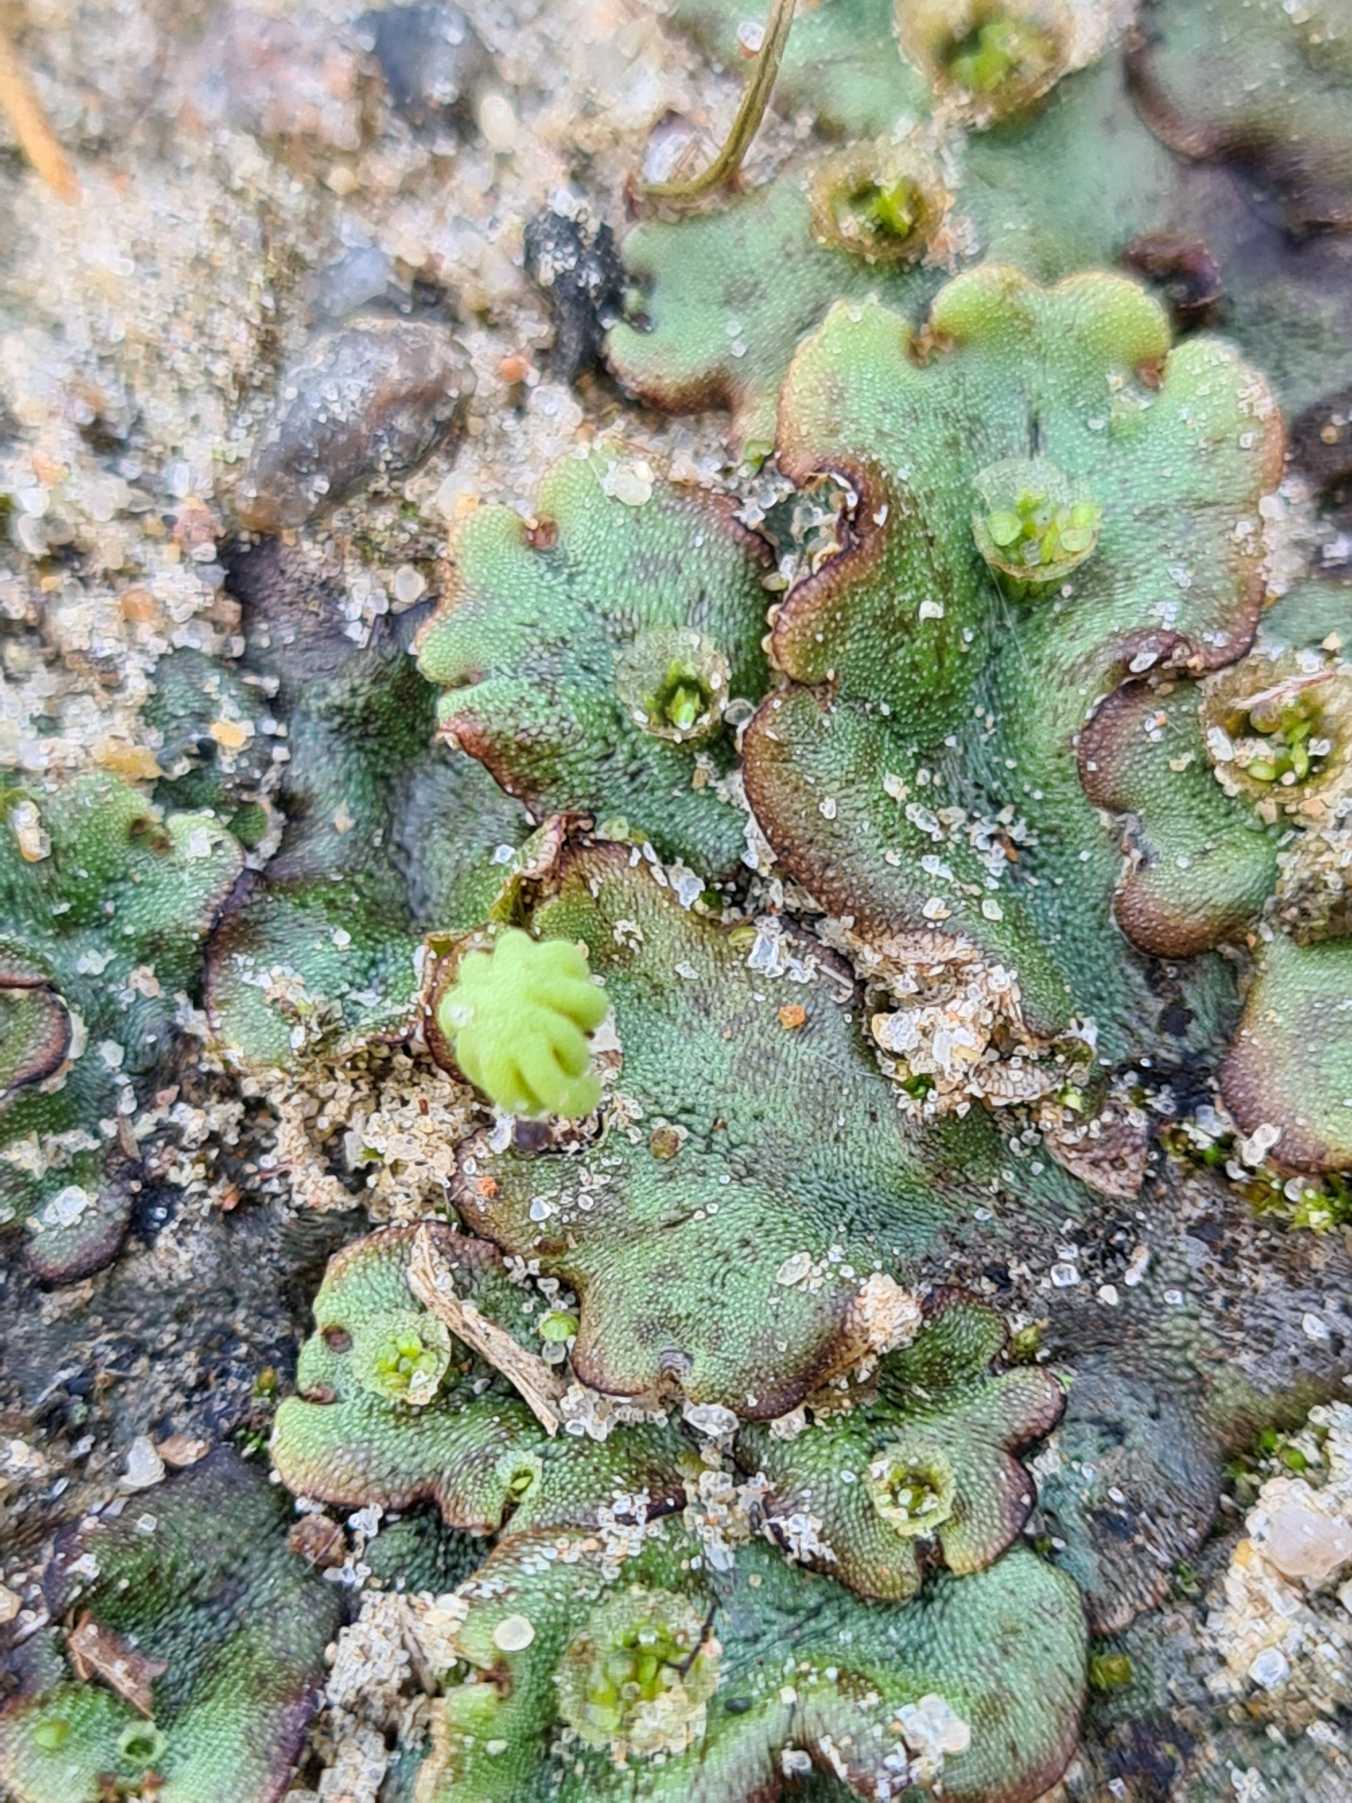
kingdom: Plantae
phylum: Marchantiophyta
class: Marchantiopsida
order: Marchantiales
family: Marchantiaceae
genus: Marchantia
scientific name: Marchantia polymorpha
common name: Almindelig lungemos (underart)
